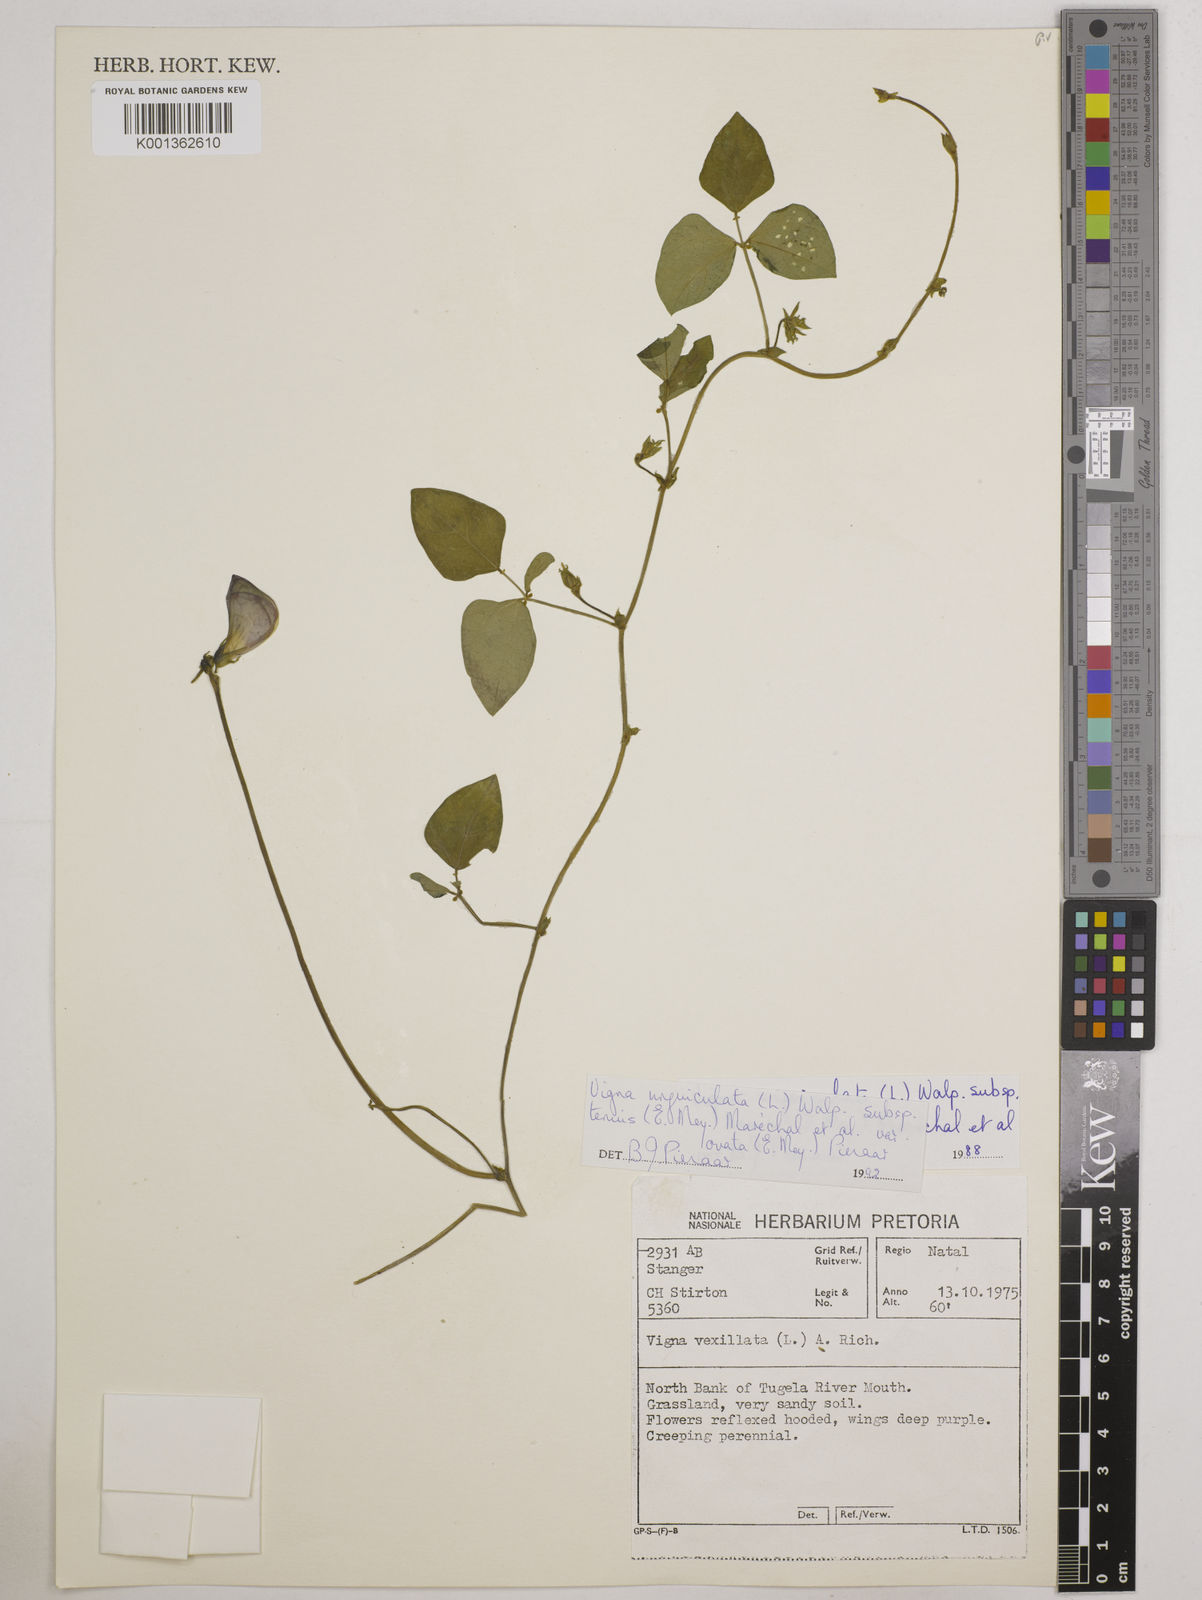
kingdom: Plantae
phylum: Tracheophyta
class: Magnoliopsida
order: Fabales
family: Fabaceae
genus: Vigna
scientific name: Vigna
